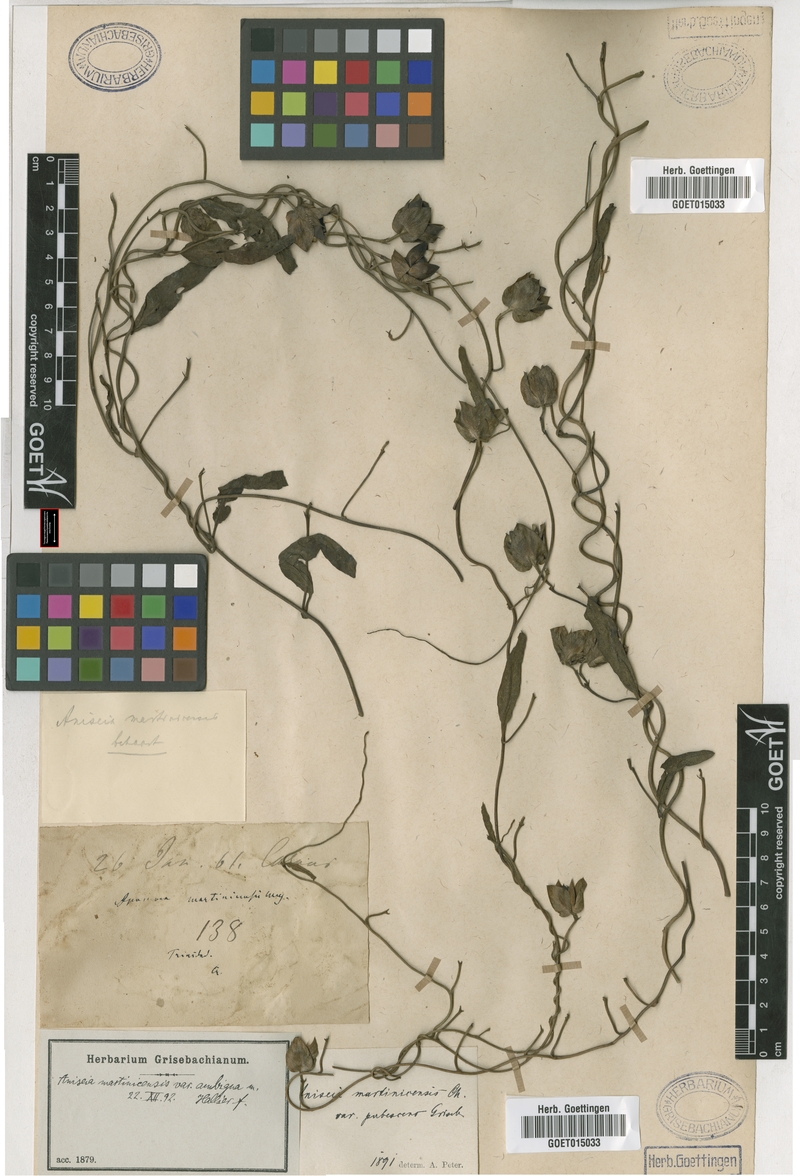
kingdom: Plantae
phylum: Tracheophyta
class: Magnoliopsida
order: Solanales
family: Convolvulaceae
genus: Aniseia
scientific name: Aniseia martinicensis
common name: Kulayadambu
